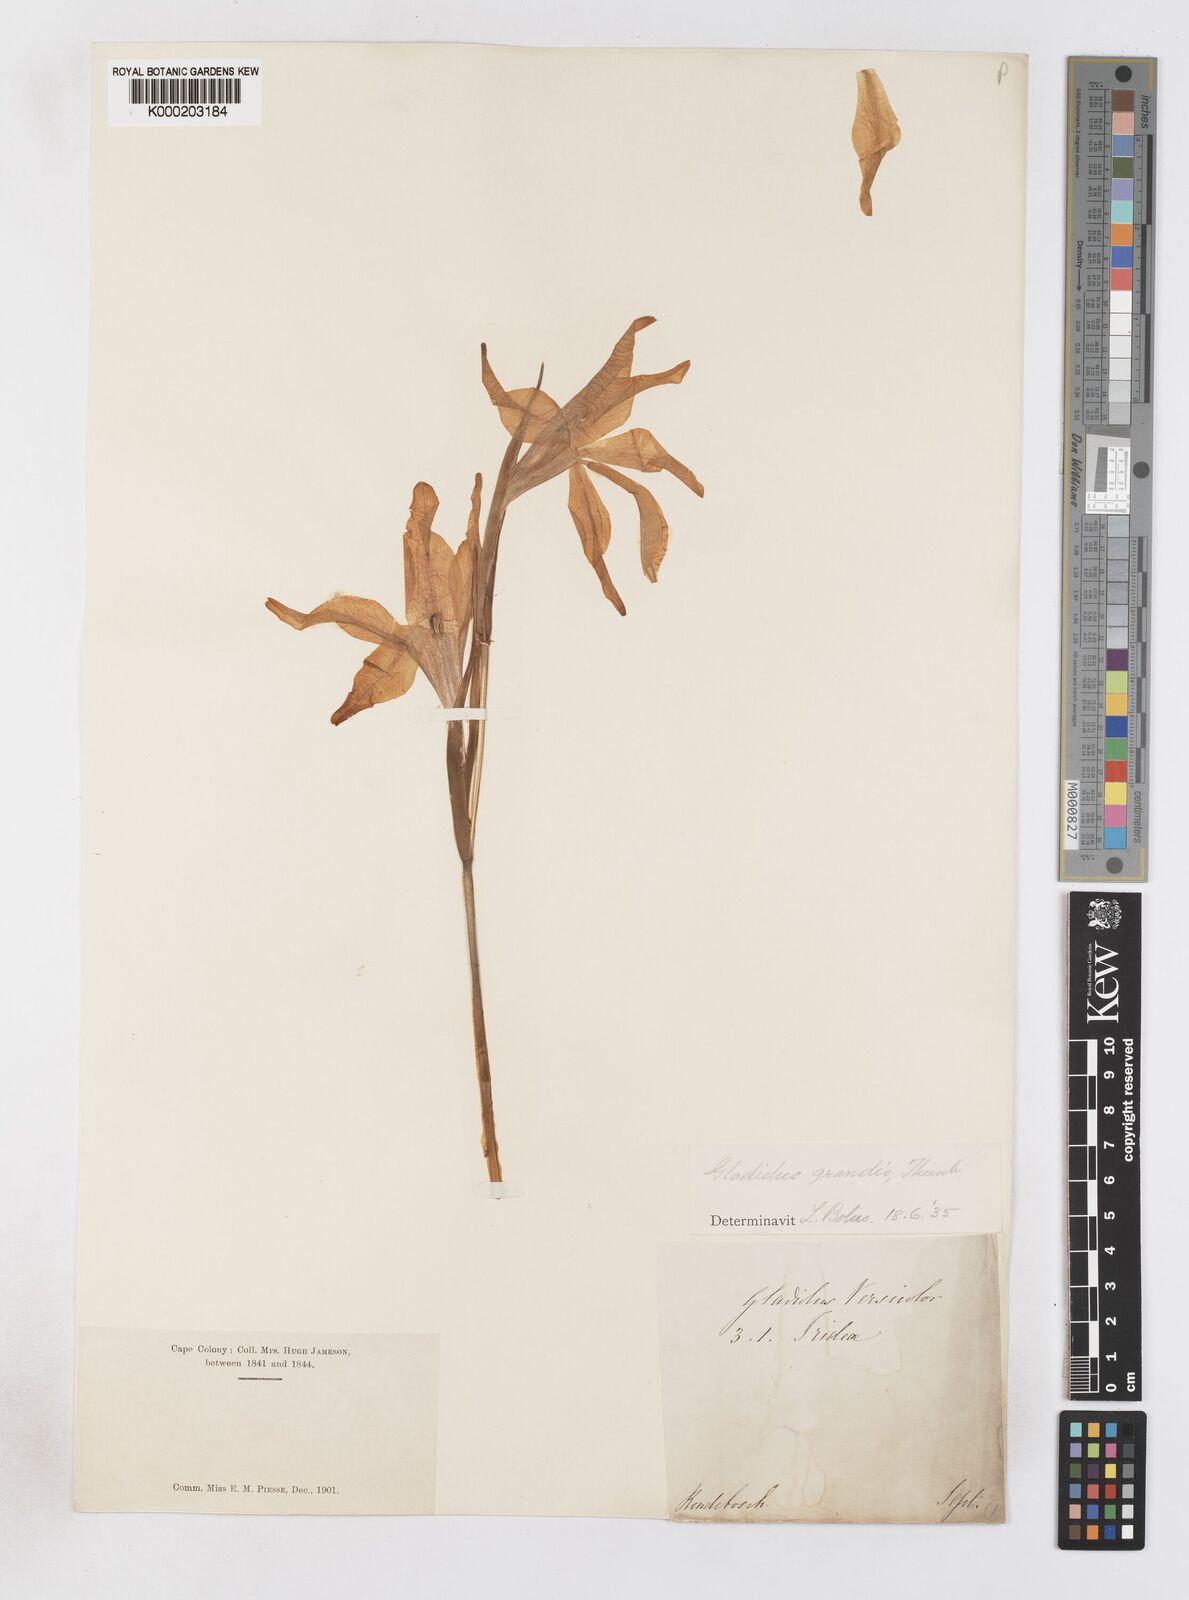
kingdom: Plantae
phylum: Tracheophyta
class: Liliopsida
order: Asparagales
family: Iridaceae
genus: Gladiolus
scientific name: Gladiolus liliaceus
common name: Large brown afrikaner
